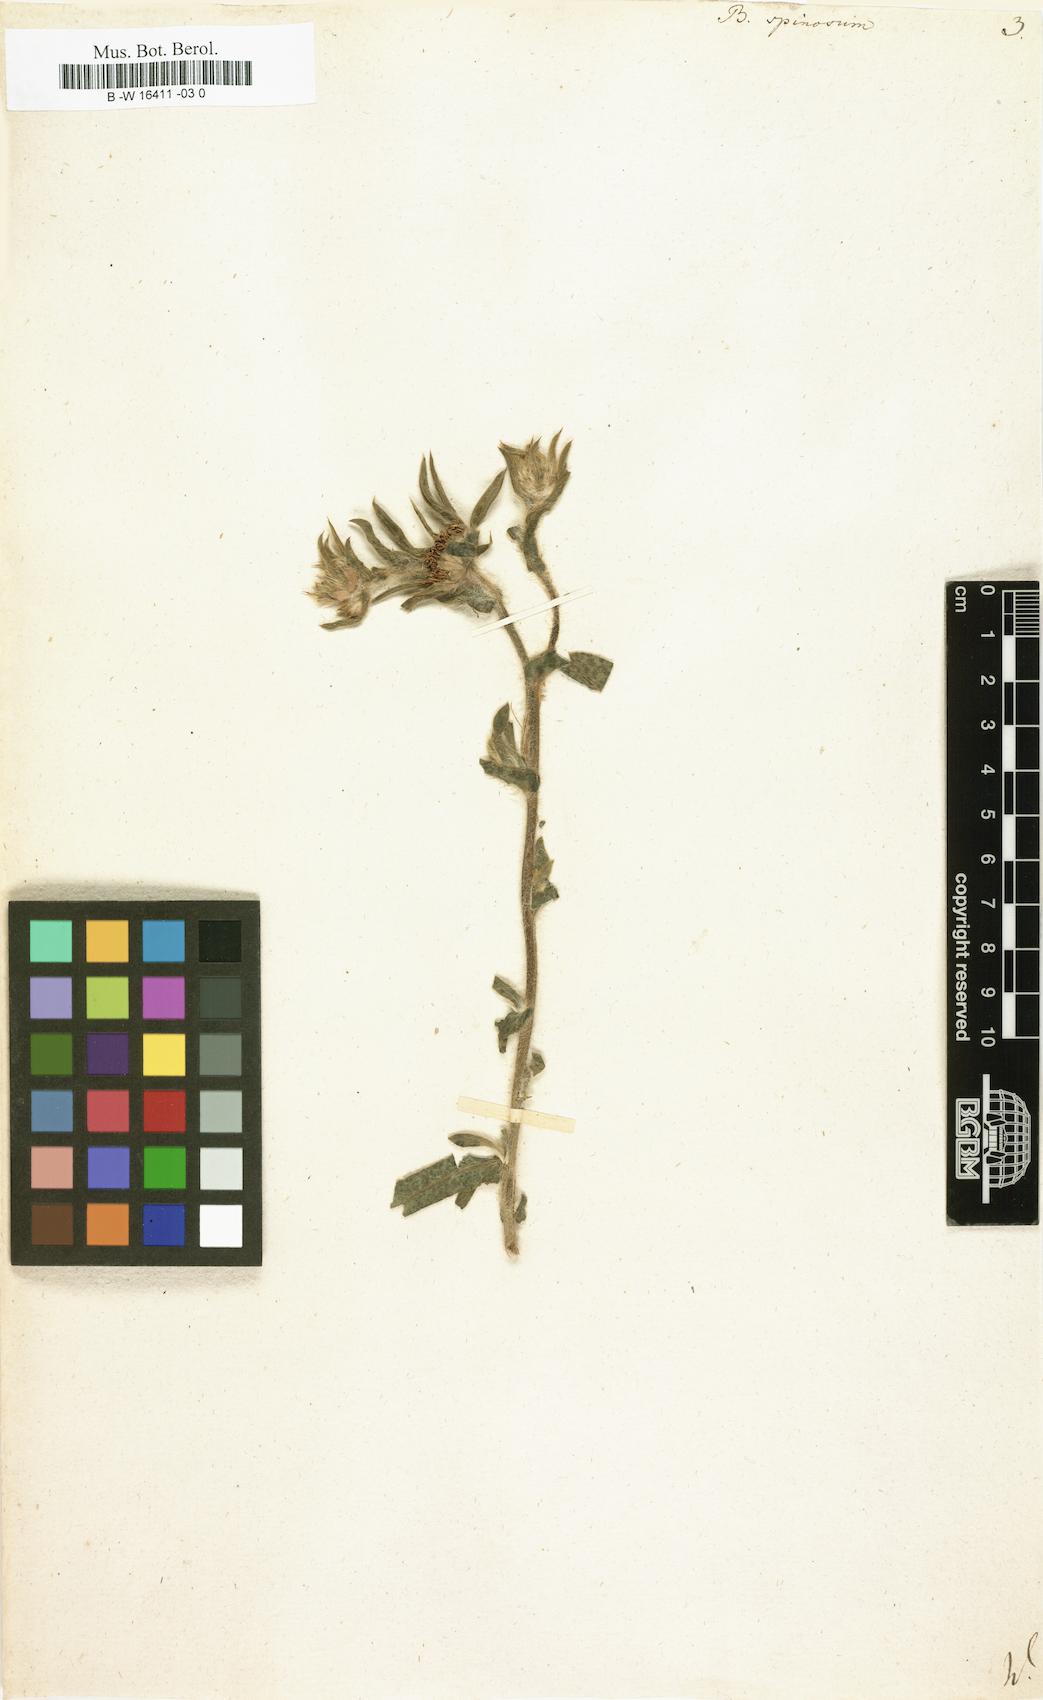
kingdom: Plantae
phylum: Tracheophyta
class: Magnoliopsida
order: Asterales
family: Asteraceae
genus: Pallenis
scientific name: Pallenis spinosa
